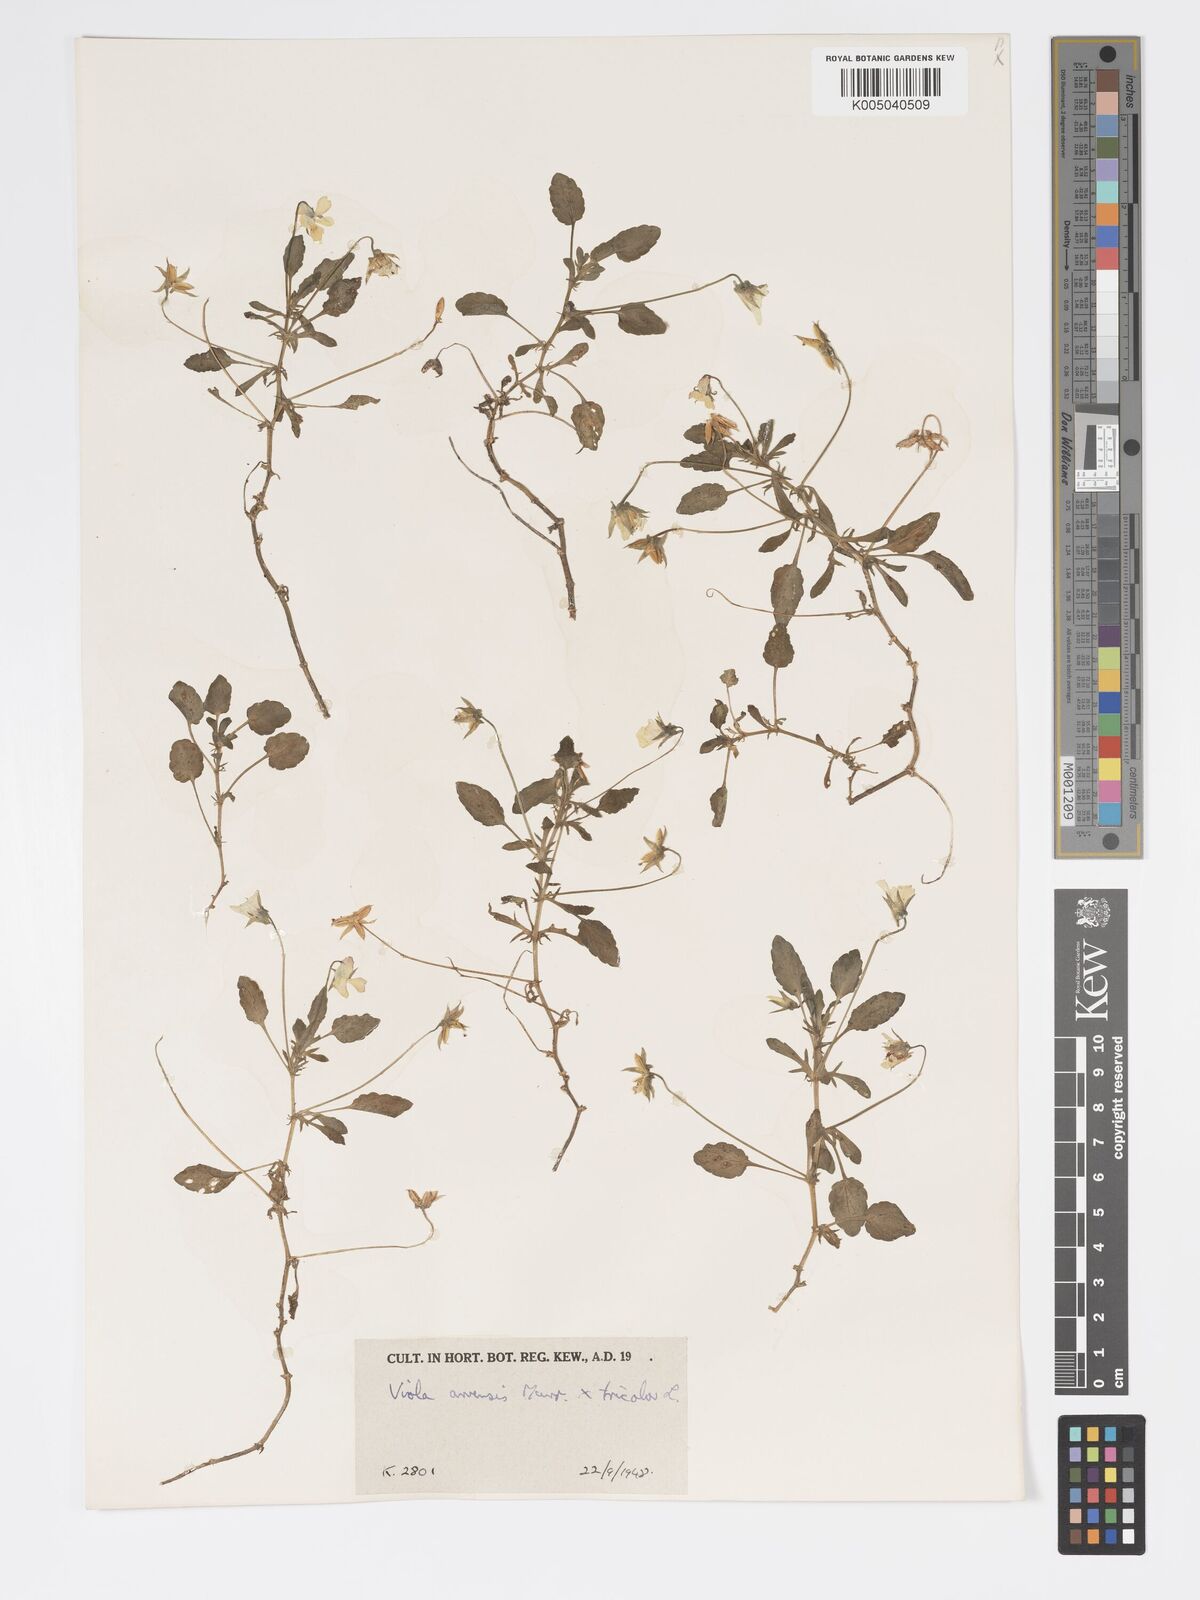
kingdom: Plantae
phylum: Tracheophyta
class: Magnoliopsida
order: Malpighiales
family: Violaceae
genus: Viola
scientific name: Viola arvensis
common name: Field pansy
